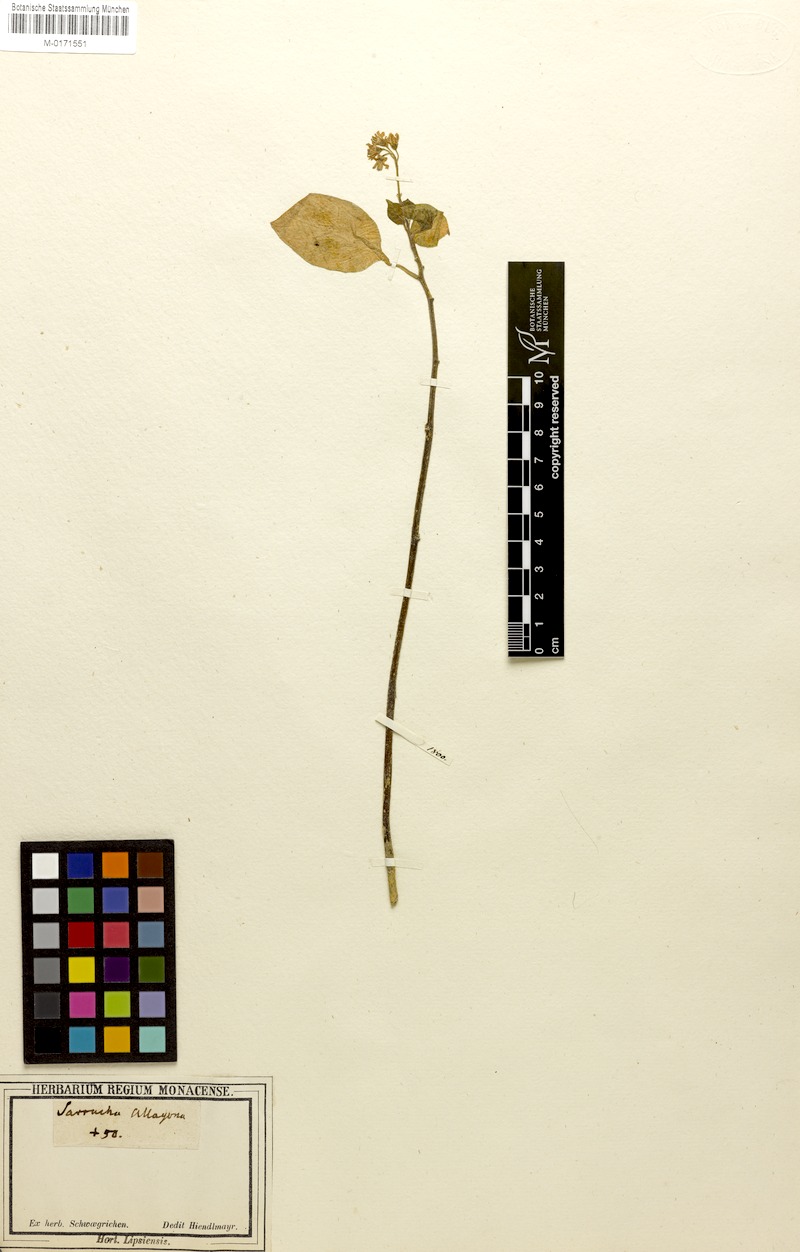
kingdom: Plantae
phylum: Tracheophyta
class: Magnoliopsida
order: Solanales
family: Solanaceae
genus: Sarracha
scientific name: Sarracha
